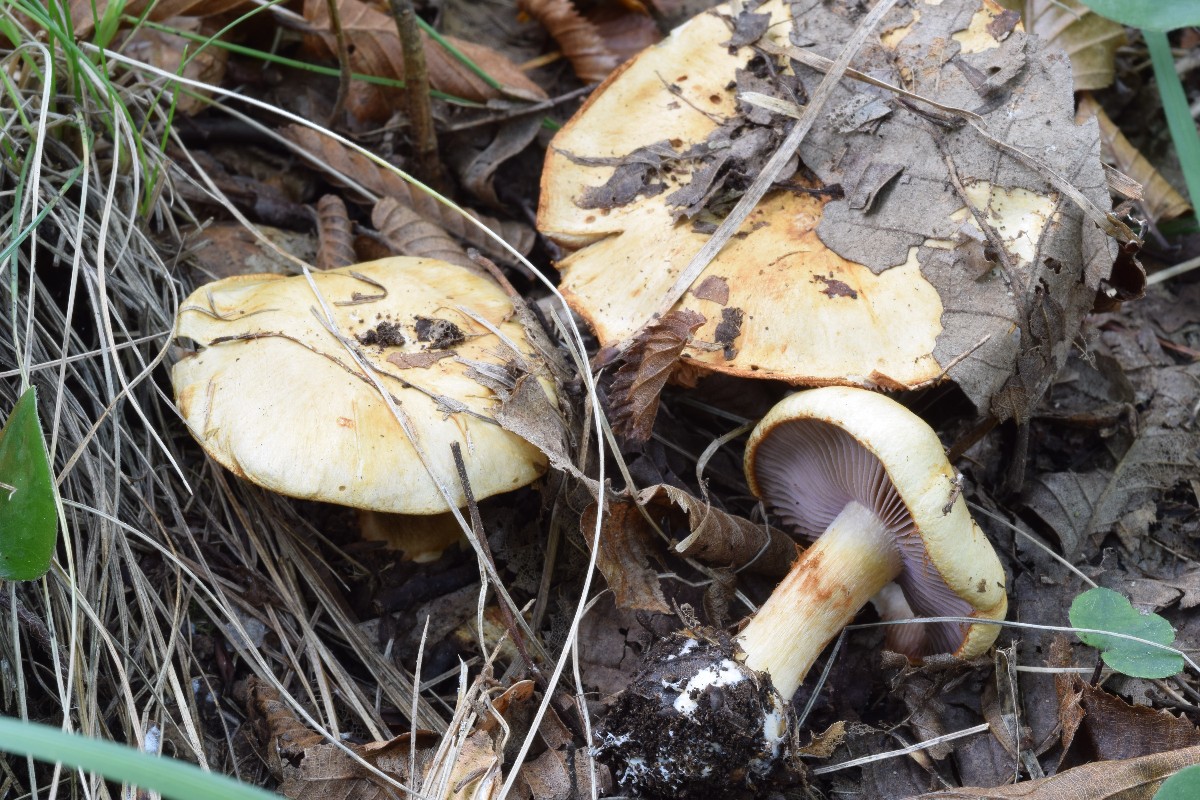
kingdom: Fungi
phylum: Basidiomycota
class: Agaricomycetes
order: Agaricales
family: Cortinariaceae
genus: Calonarius
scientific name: Calonarius flavoaurantians
